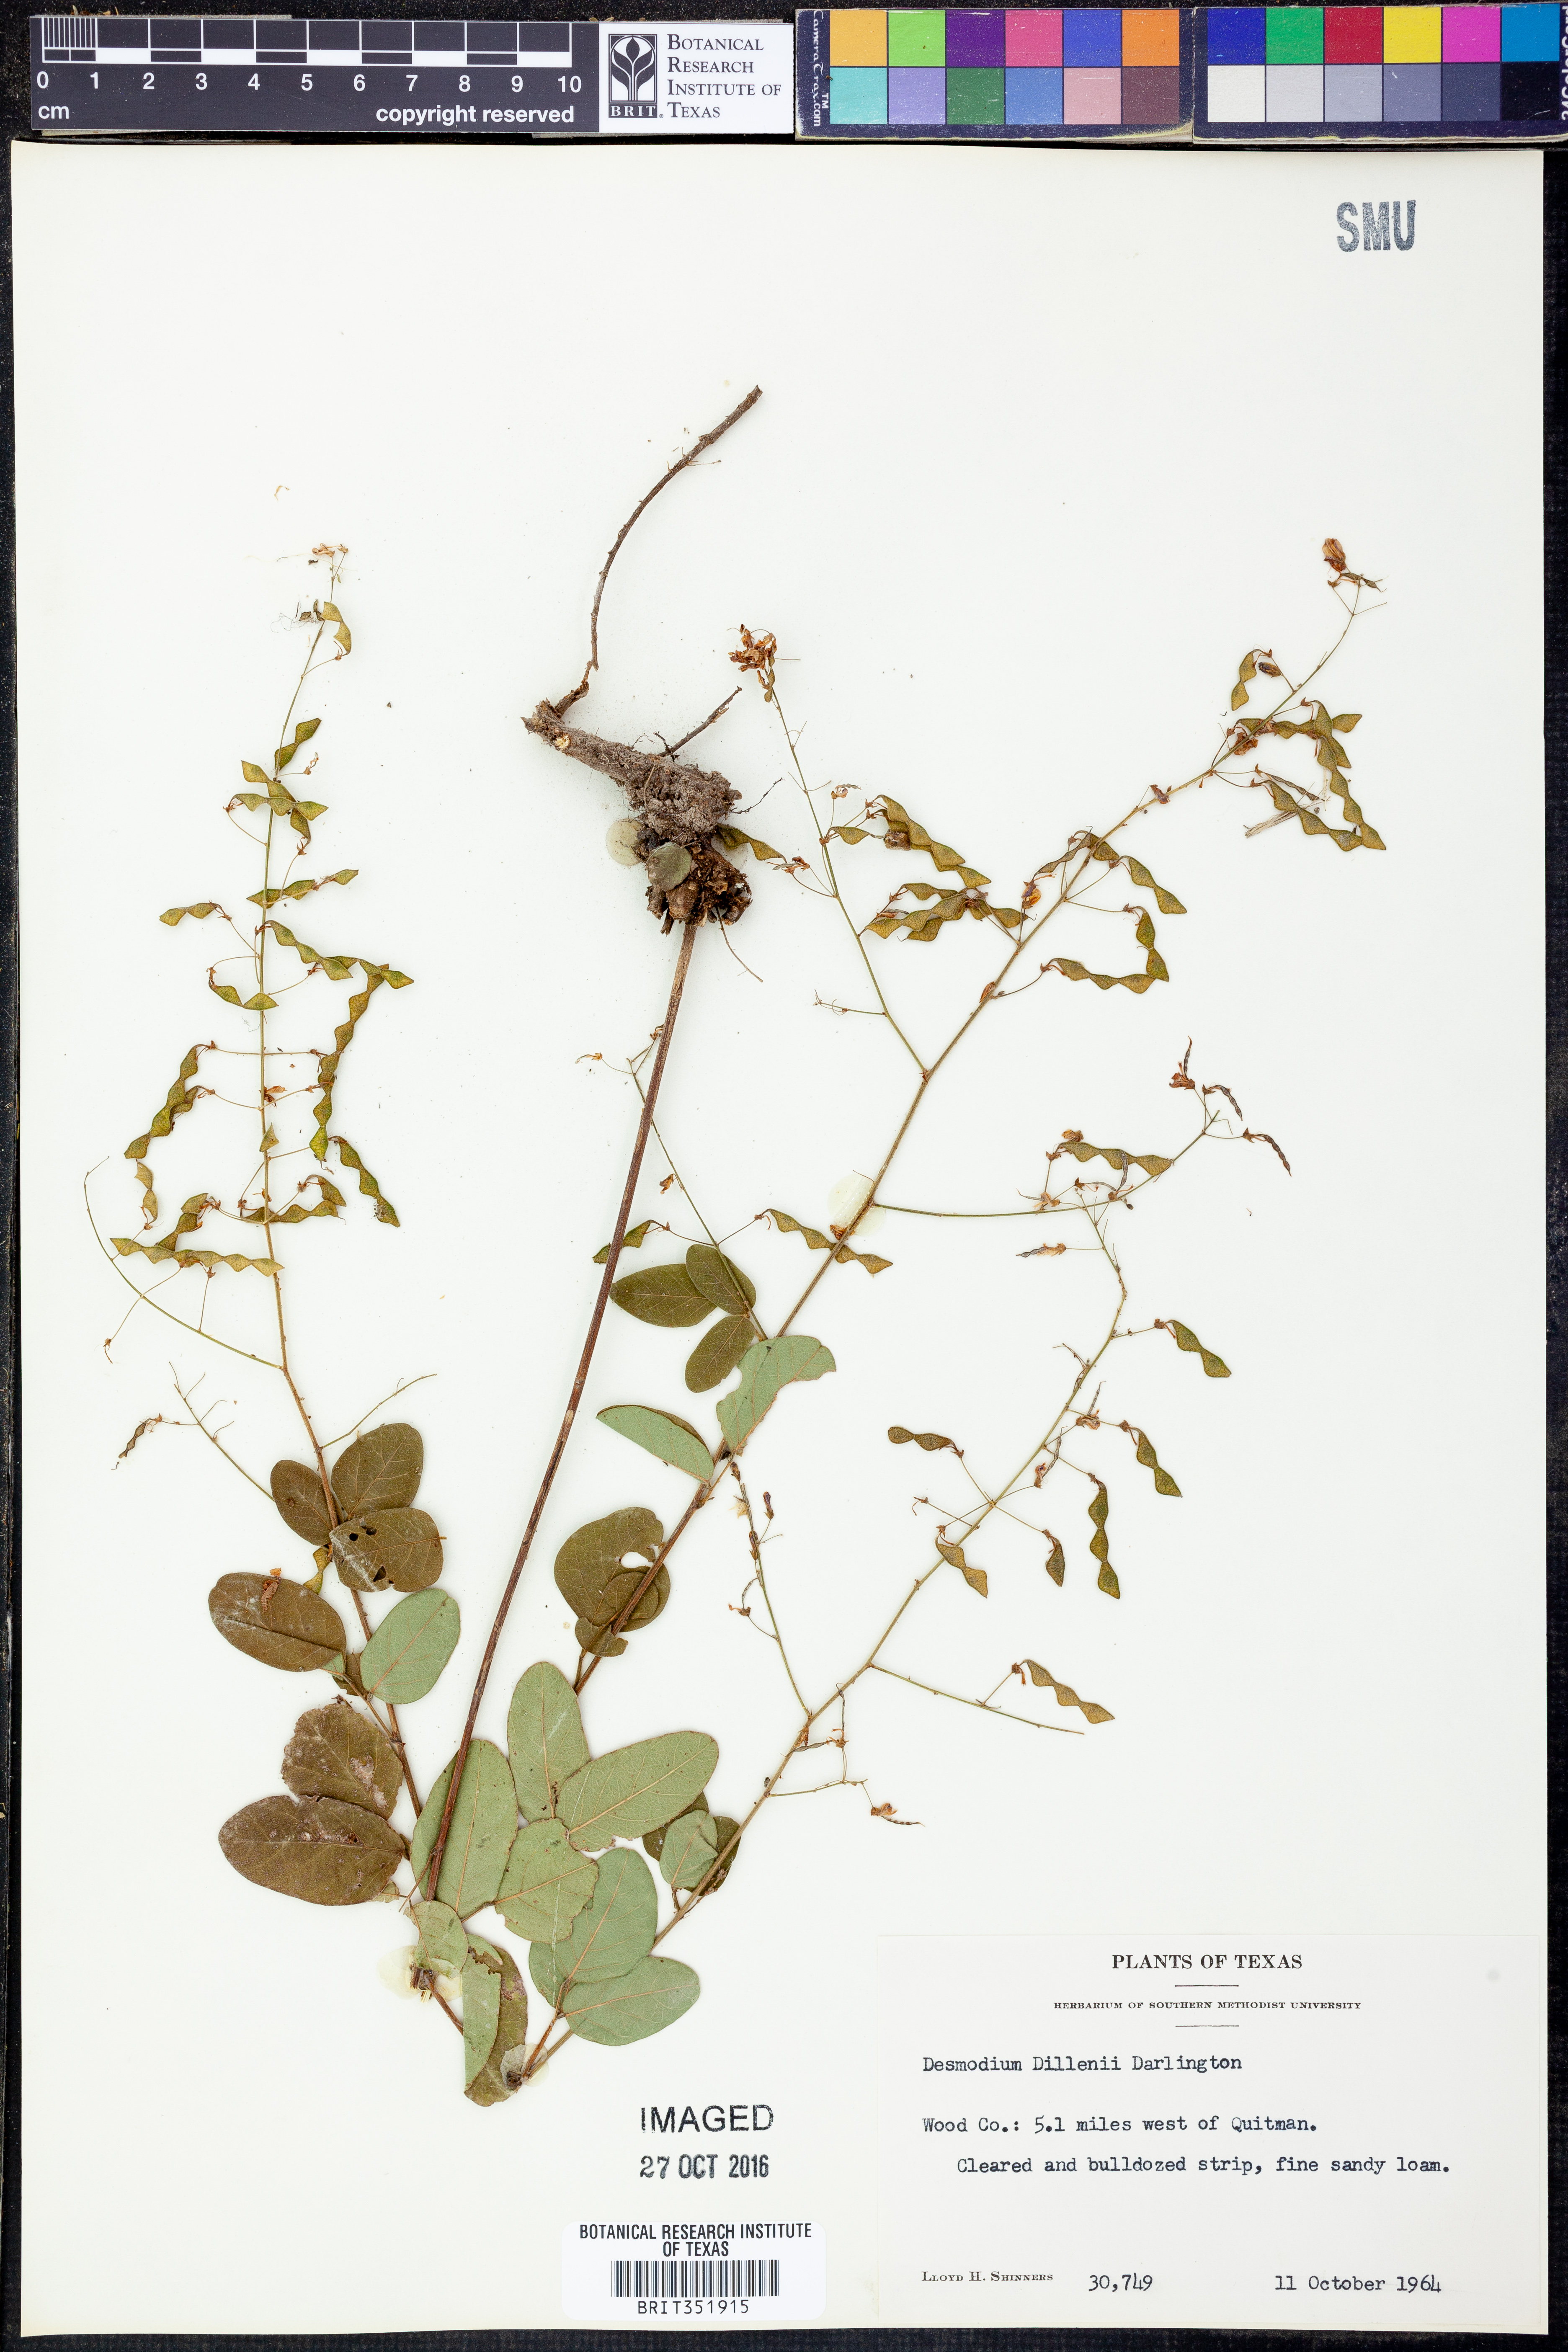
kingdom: Plantae
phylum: Tracheophyta
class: Magnoliopsida
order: Fabales
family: Fabaceae
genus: Desmodium
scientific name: Desmodium perplexum
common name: Perplexed tick trefoil
